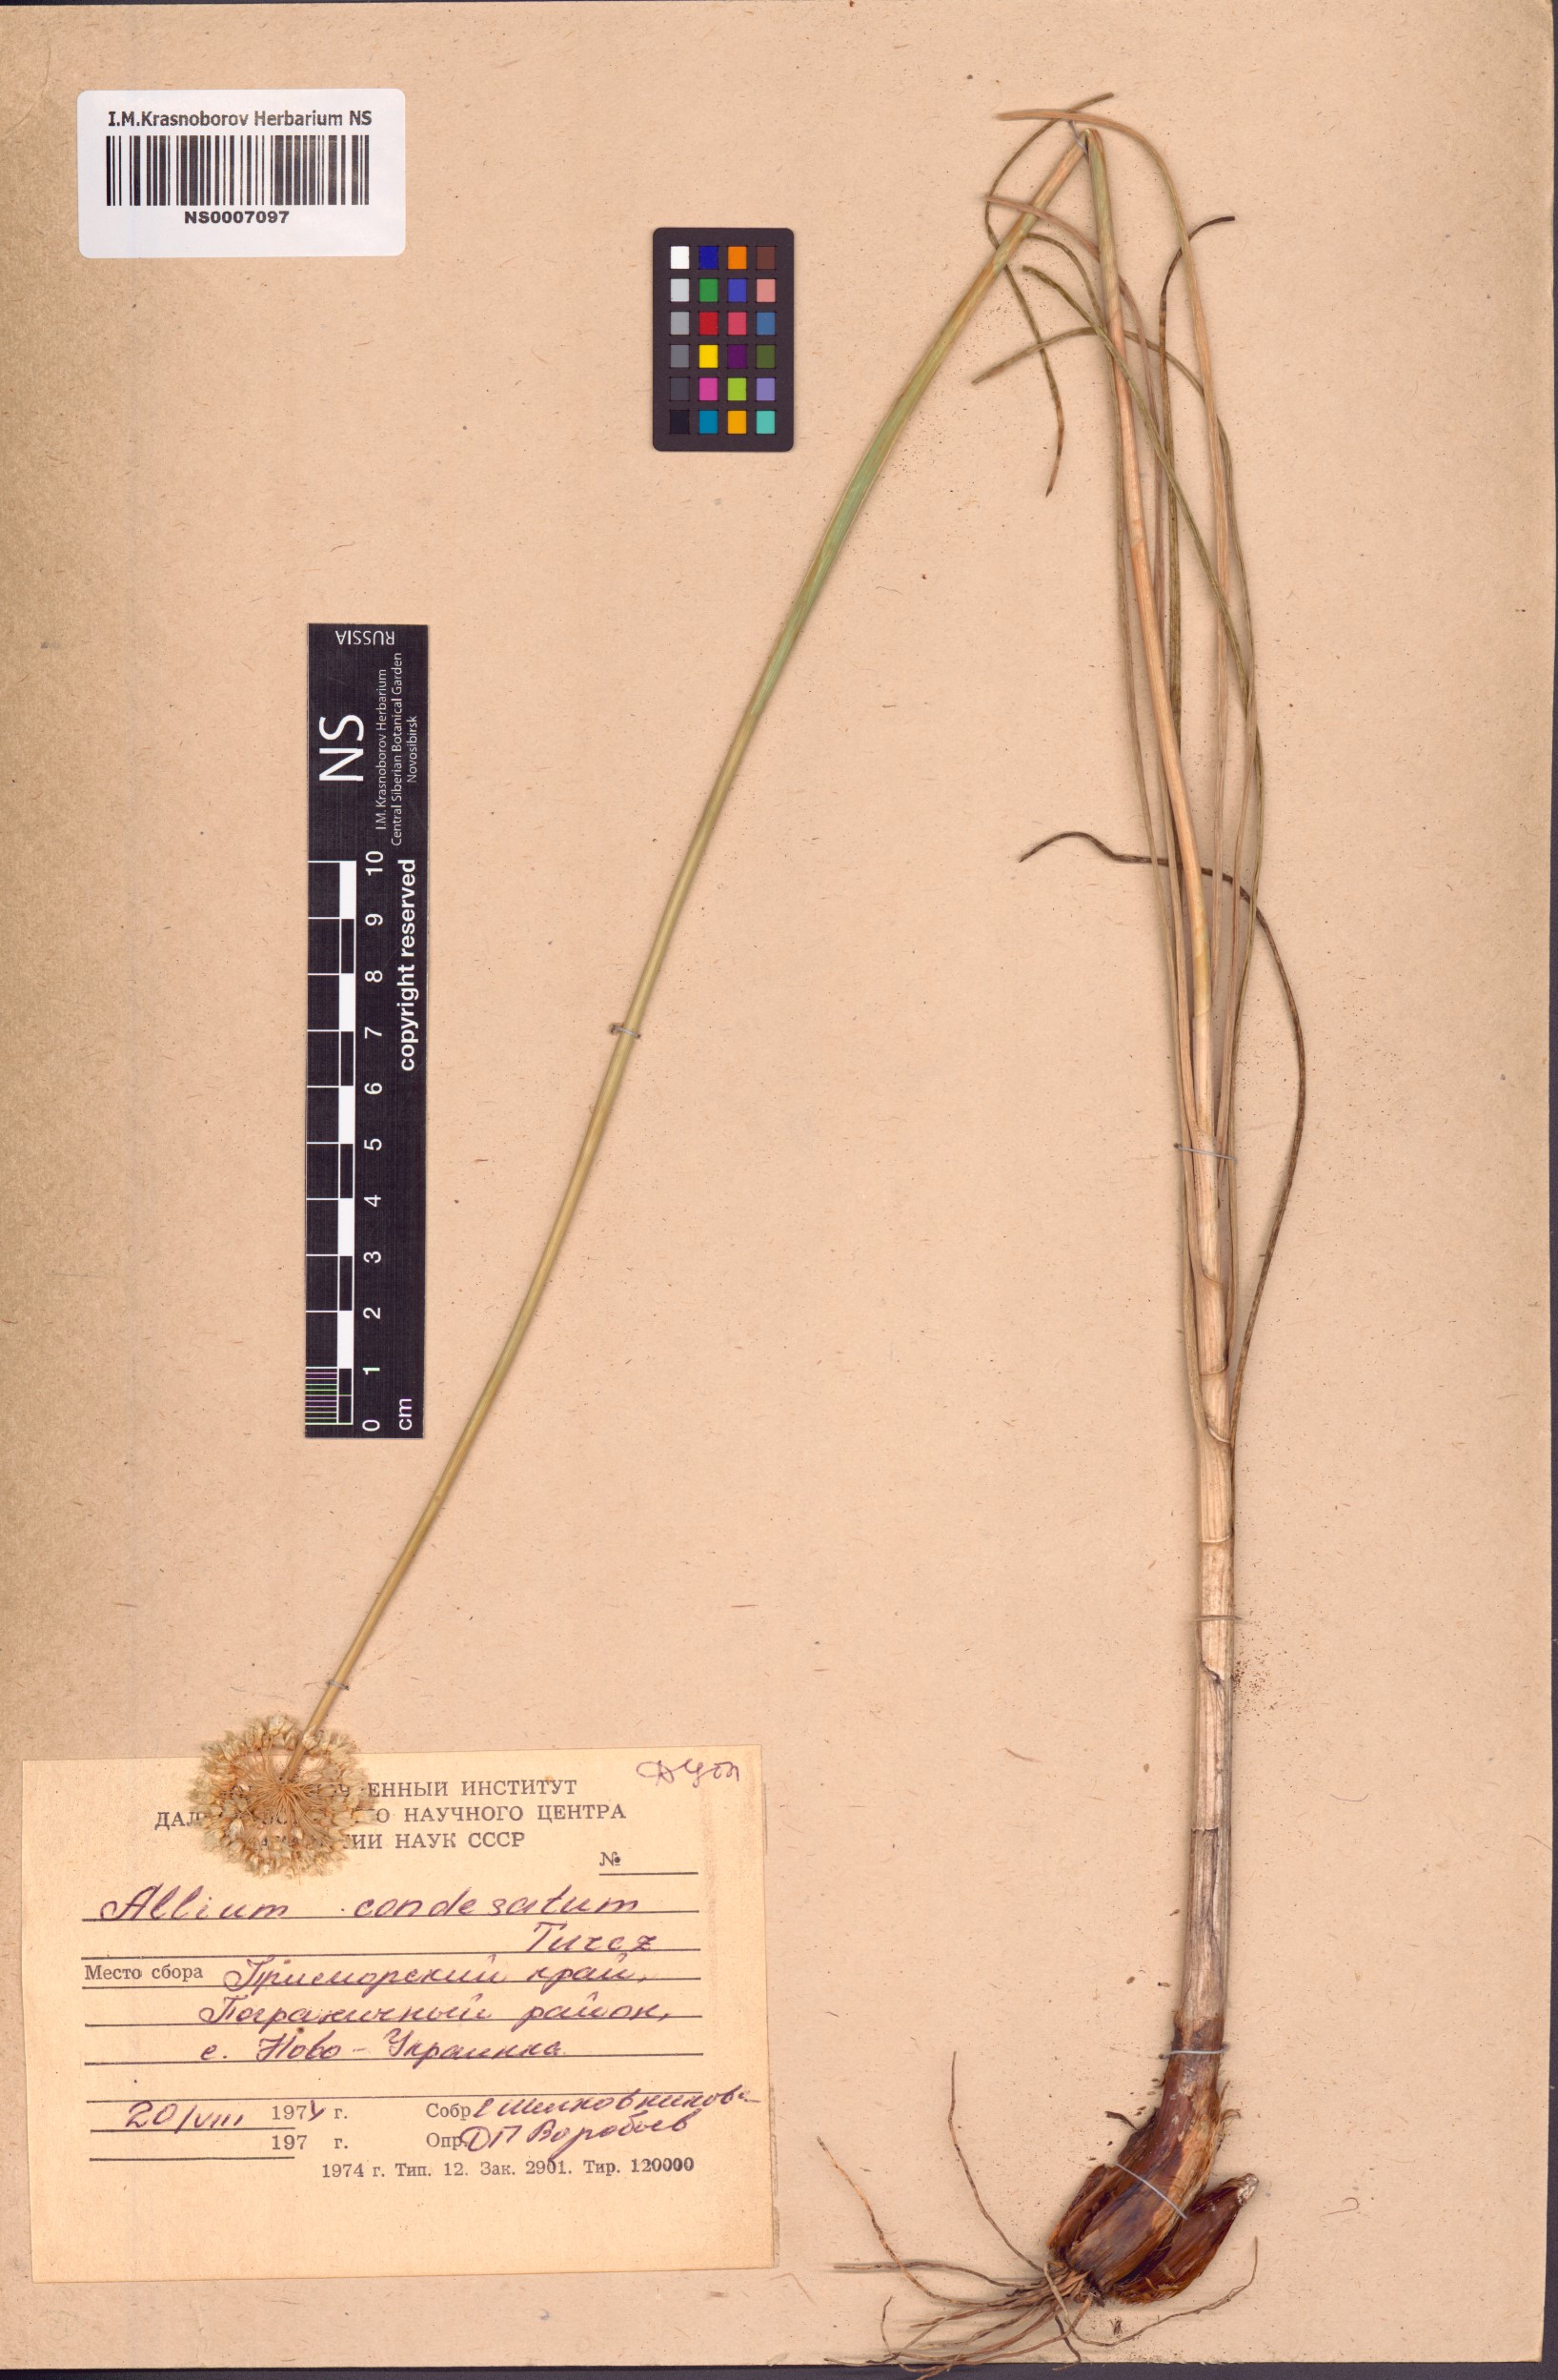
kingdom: Plantae
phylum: Tracheophyta
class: Liliopsida
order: Asparagales
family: Amaryllidaceae
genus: Allium
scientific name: Allium condensatum
